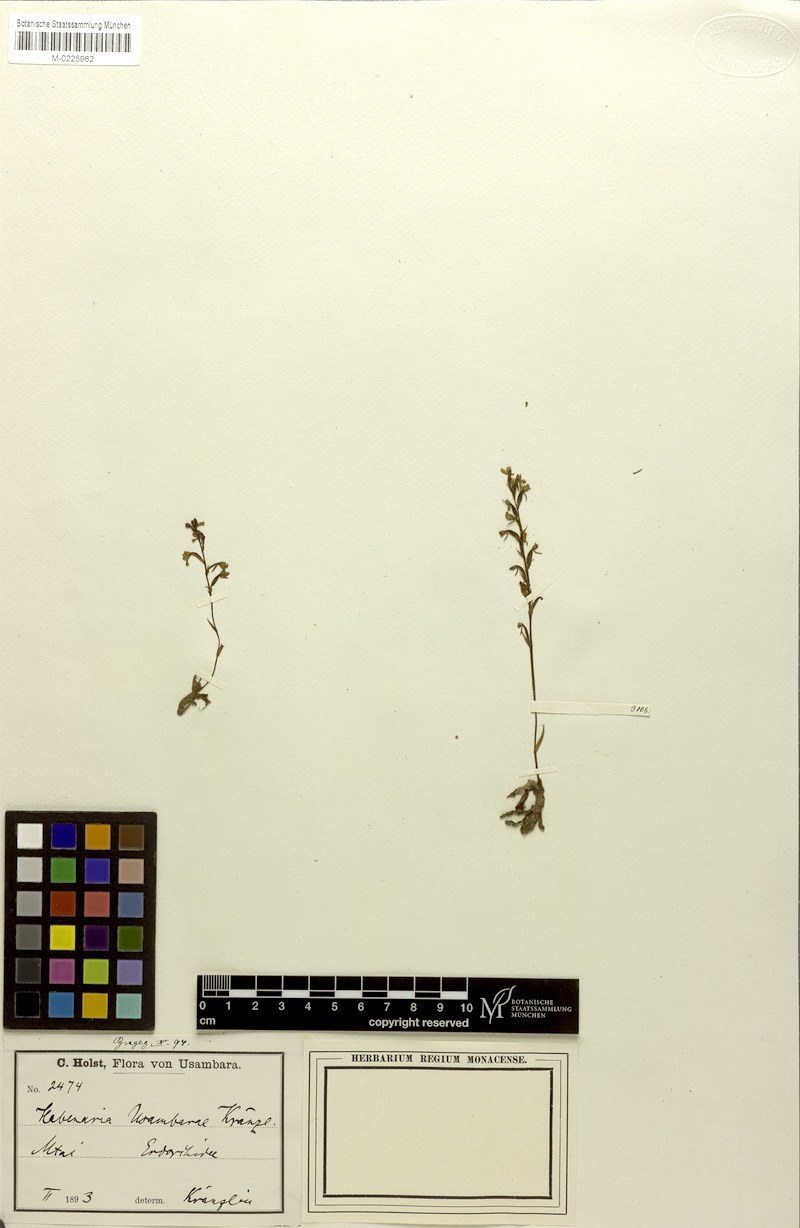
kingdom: Plantae
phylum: Tracheophyta
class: Liliopsida
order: Asparagales
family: Orchidaceae
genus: Cynorkis
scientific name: Cynorkis usambarae
